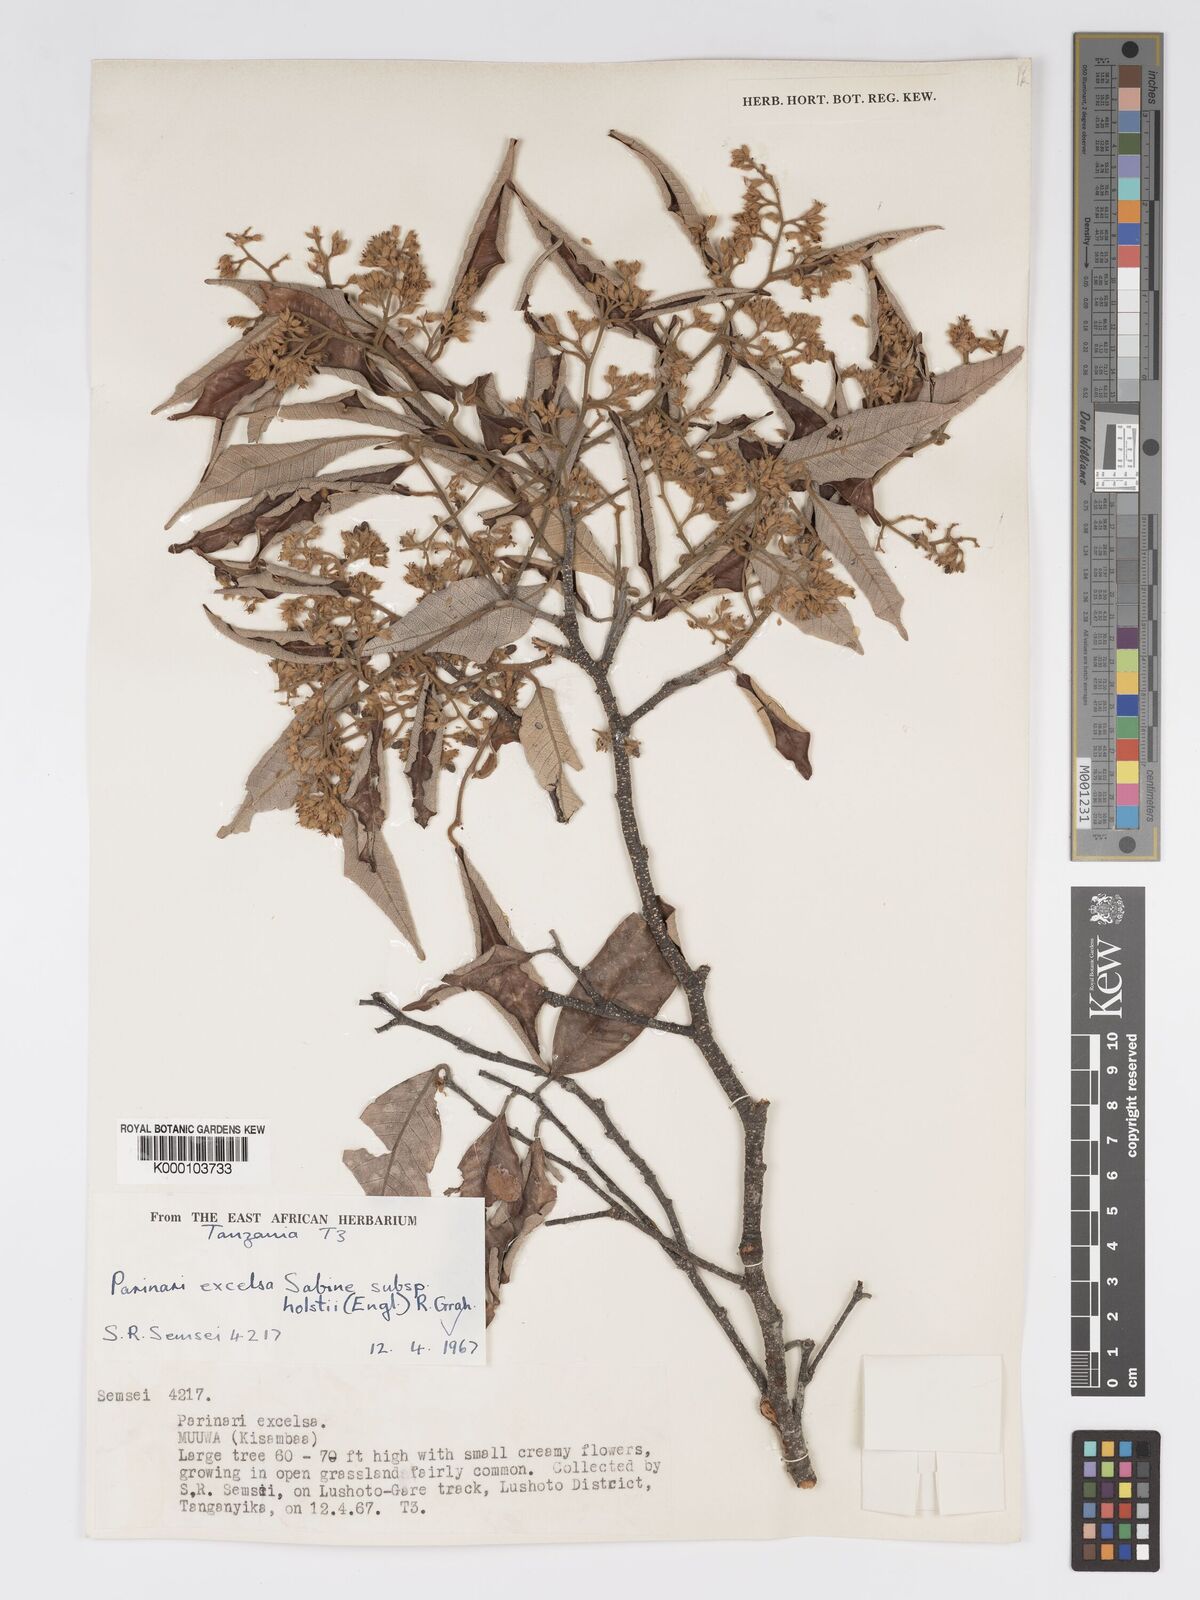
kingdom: Plantae
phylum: Tracheophyta
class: Magnoliopsida
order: Malpighiales
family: Chrysobalanaceae
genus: Parinari
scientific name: Parinari excelsa
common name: Guinea-plum
